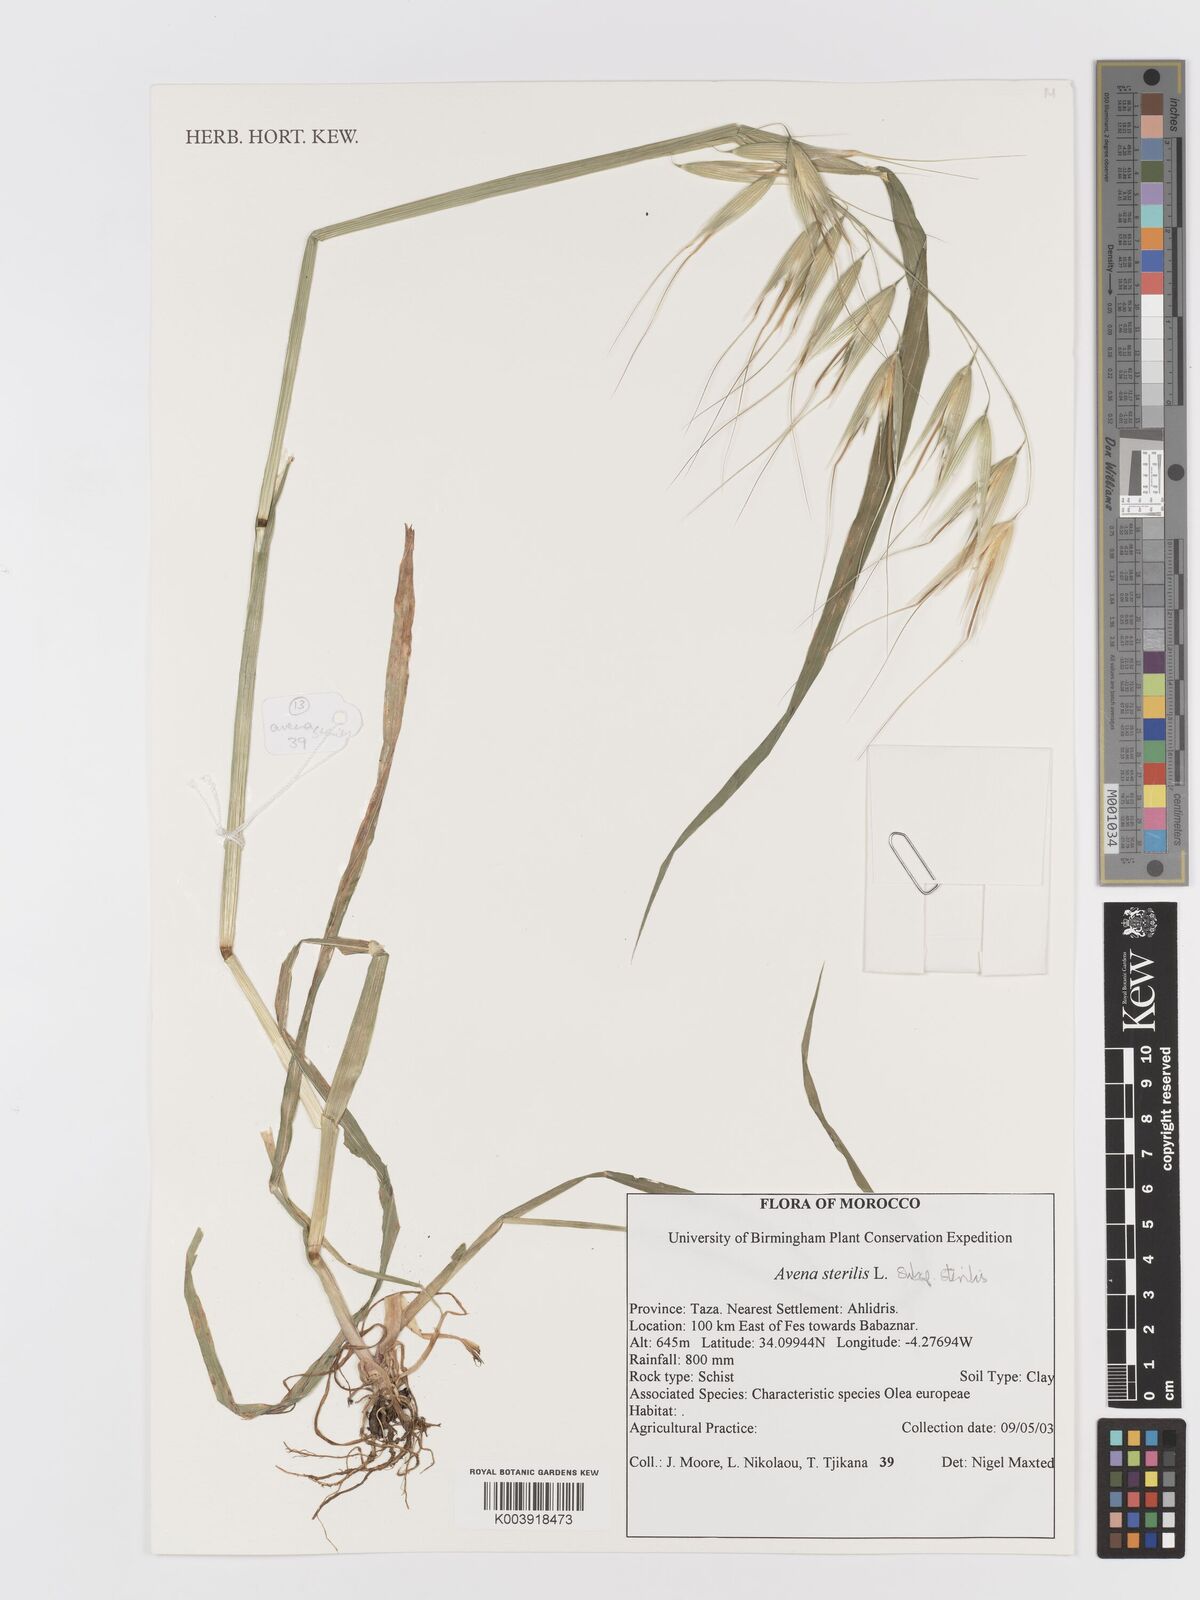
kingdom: Plantae
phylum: Tracheophyta
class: Liliopsida
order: Poales
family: Poaceae
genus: Avena
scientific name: Avena sterilis
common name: Animated oat
